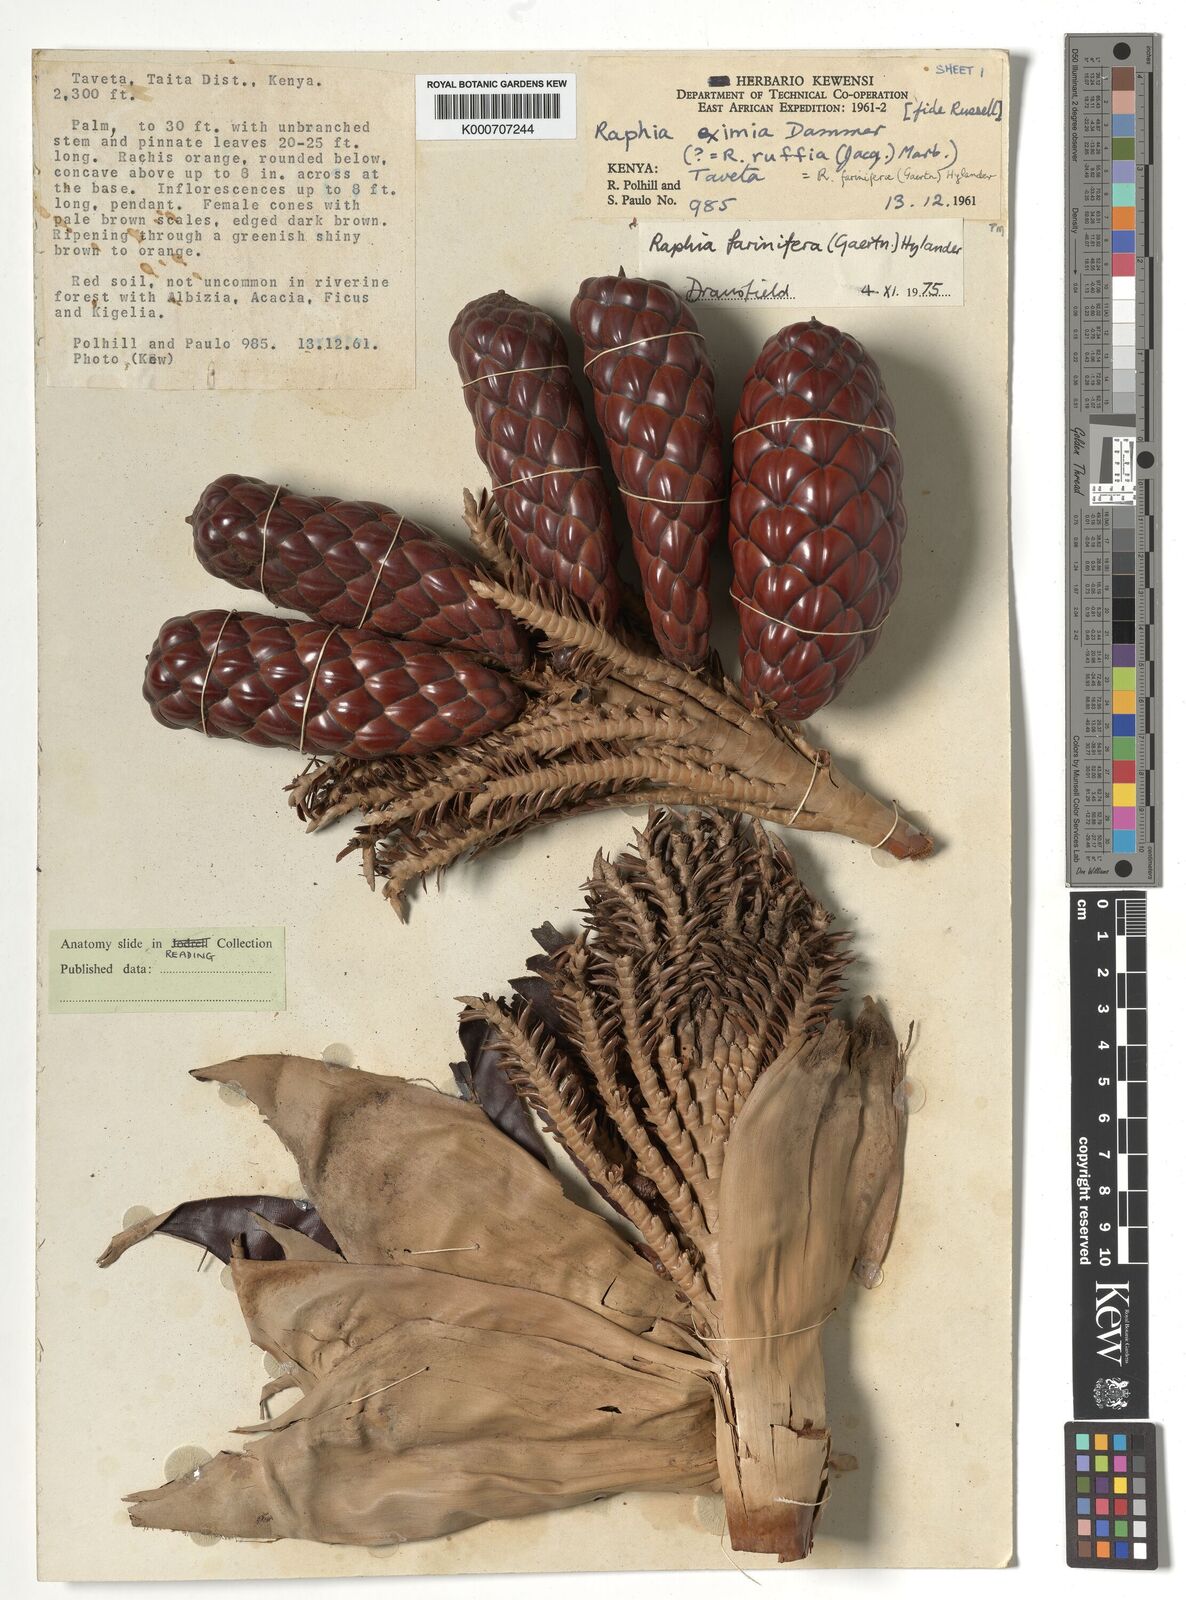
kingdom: Plantae
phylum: Tracheophyta
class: Liliopsida
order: Arecales
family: Arecaceae
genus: Raphia
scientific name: Raphia farinifera
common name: Raphia palm
